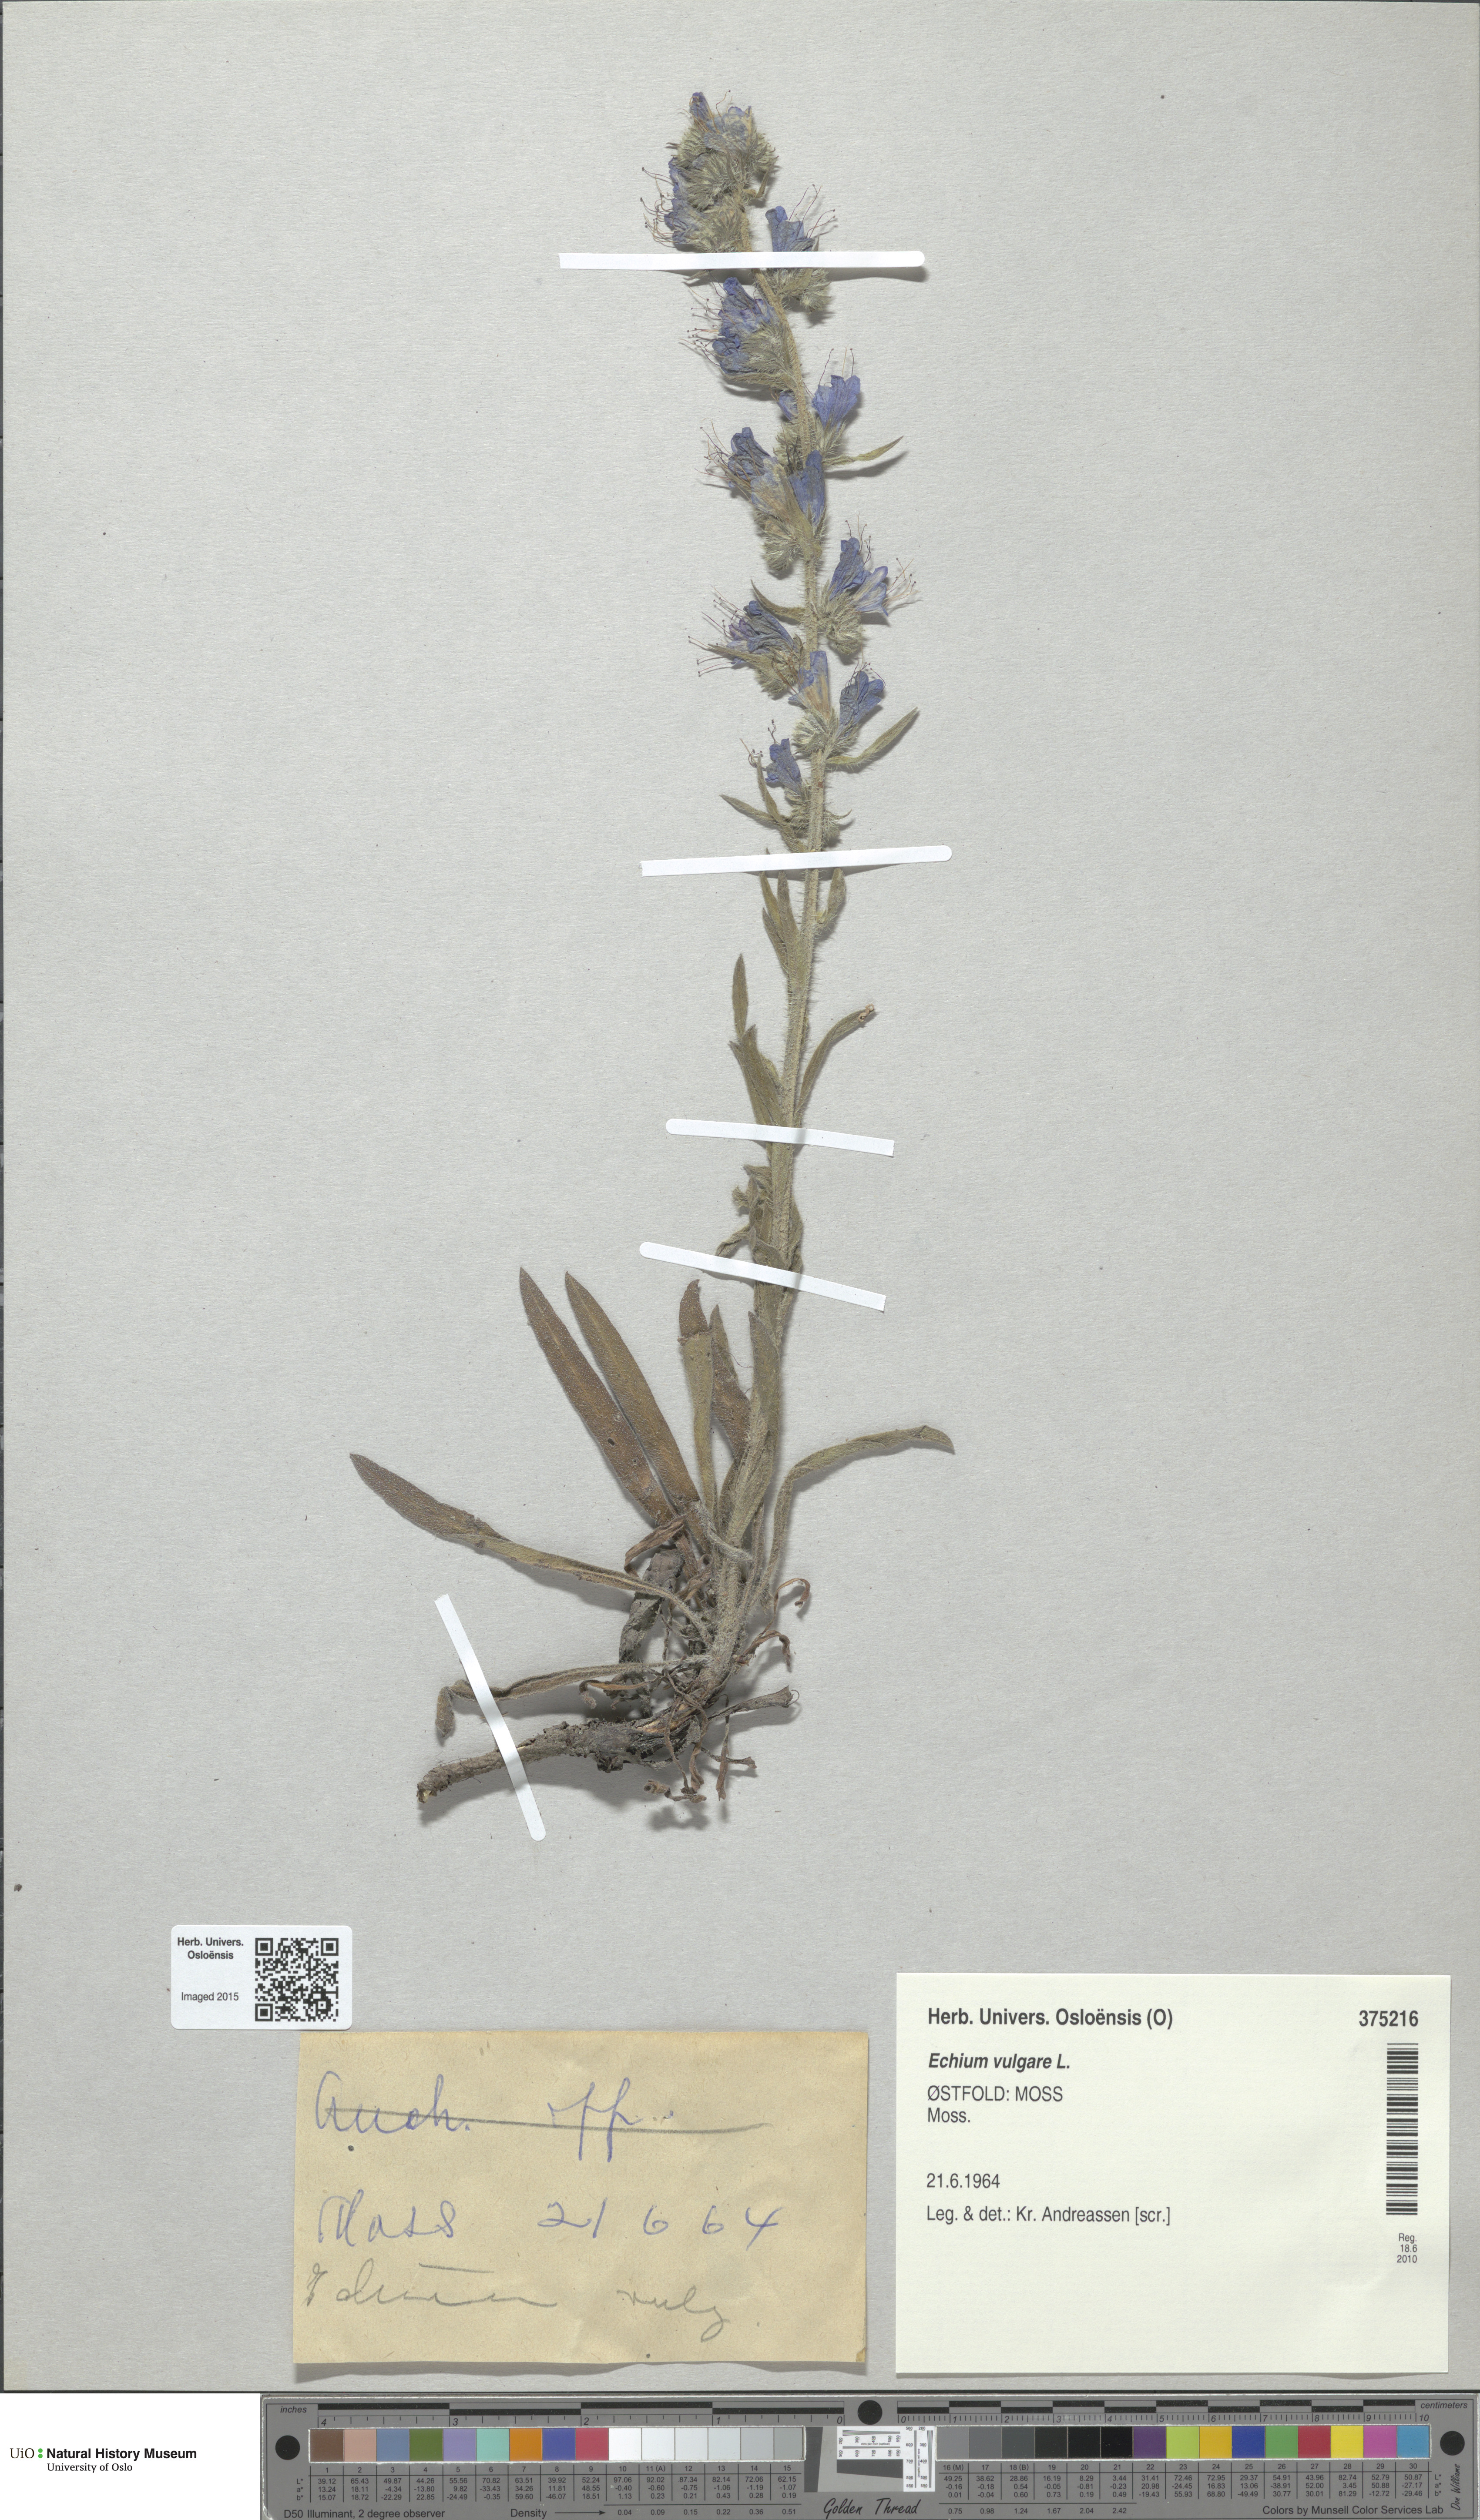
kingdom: Plantae
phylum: Tracheophyta
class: Magnoliopsida
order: Boraginales
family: Boraginaceae
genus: Echium
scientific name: Echium vulgare
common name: Common viper's bugloss
